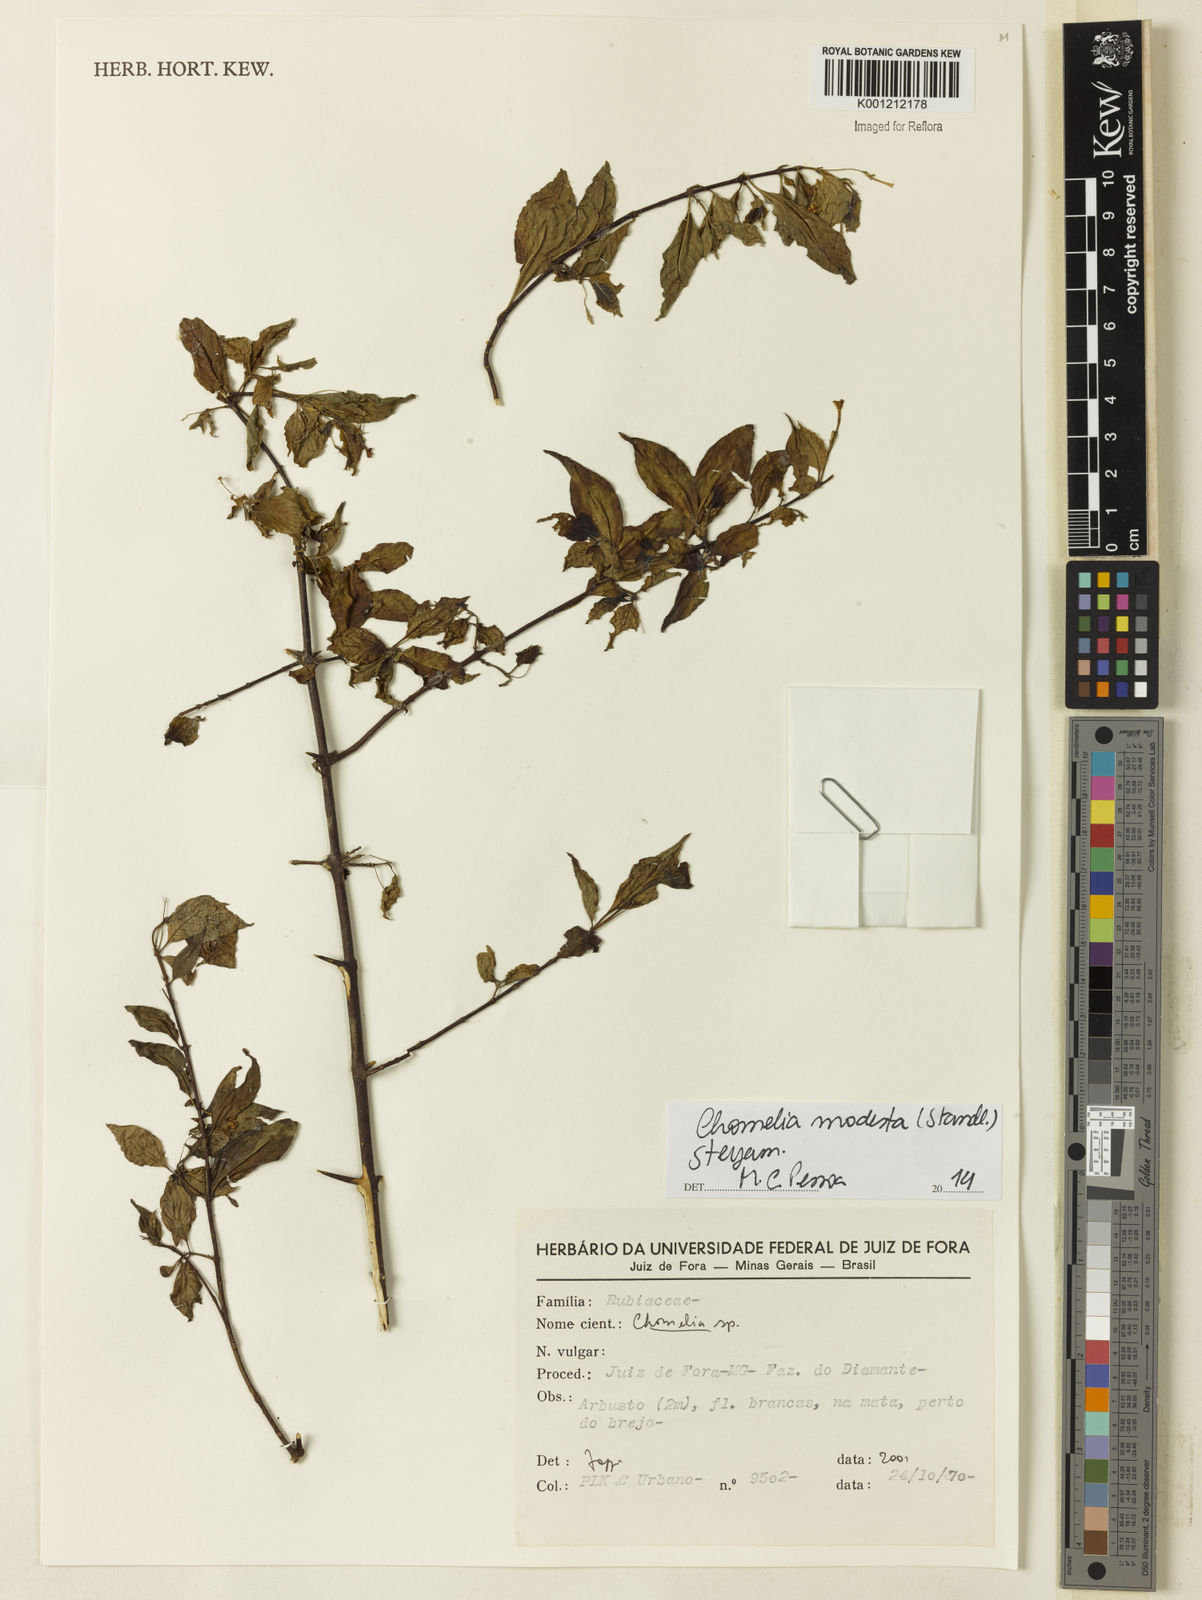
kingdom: Plantae
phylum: Tracheophyta
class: Magnoliopsida
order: Gentianales
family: Rubiaceae
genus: Chomelia
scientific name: Chomelia modesta
